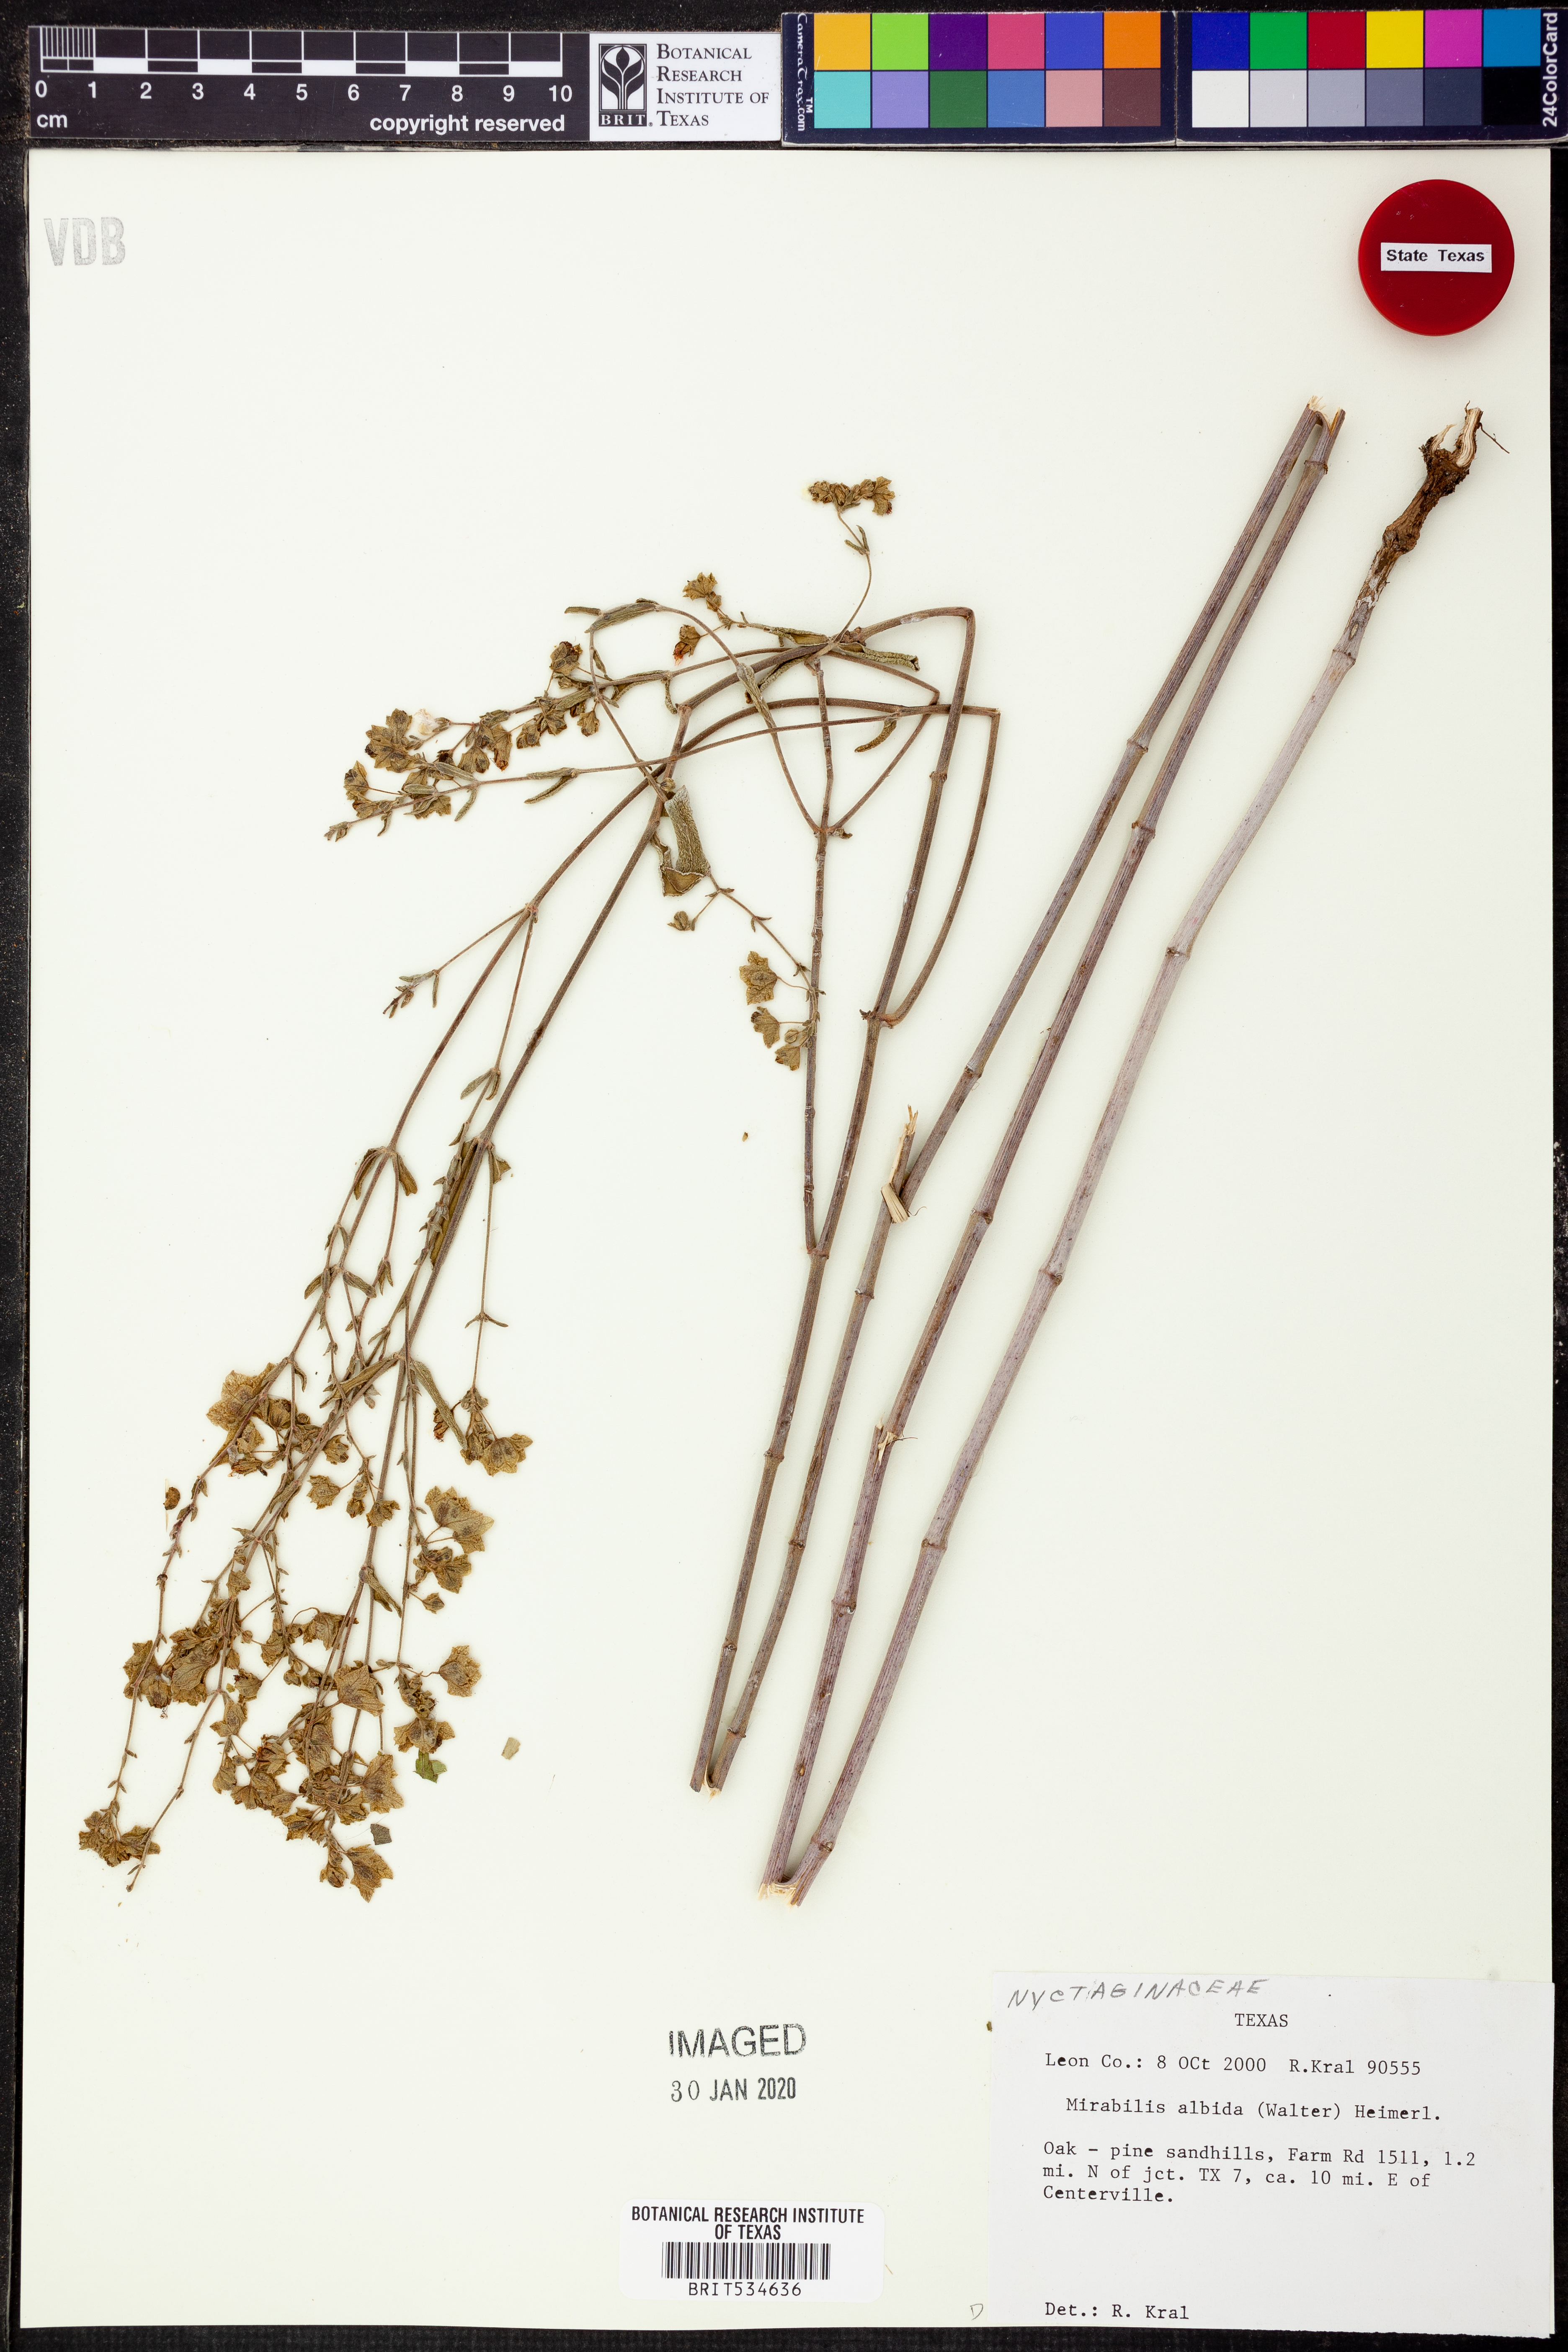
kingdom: Plantae
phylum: Tracheophyta
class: Magnoliopsida
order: Caryophyllales
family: Nyctaginaceae
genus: Mirabilis
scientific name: Mirabilis albida
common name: Hairy four-o'clock
